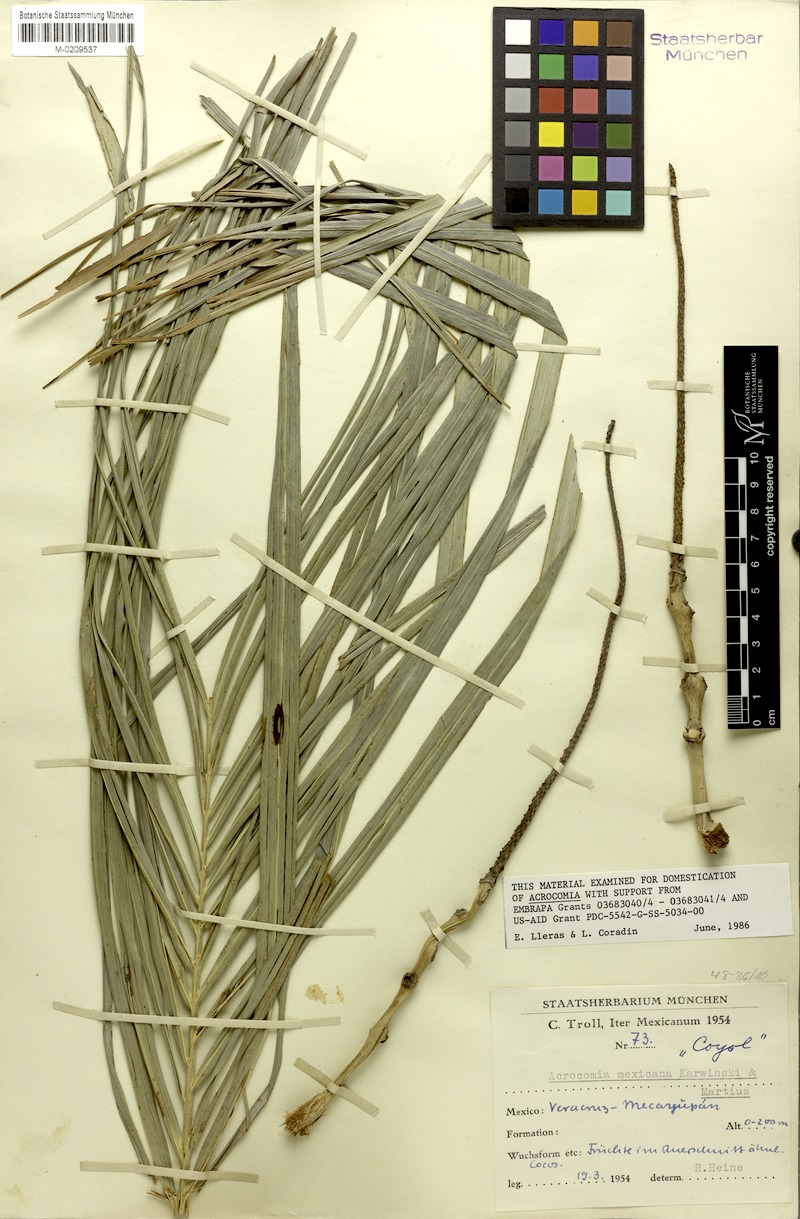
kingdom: Plantae
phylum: Tracheophyta
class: Liliopsida
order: Arecales
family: Arecaceae
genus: Acrocomia
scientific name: Acrocomia aculeata
